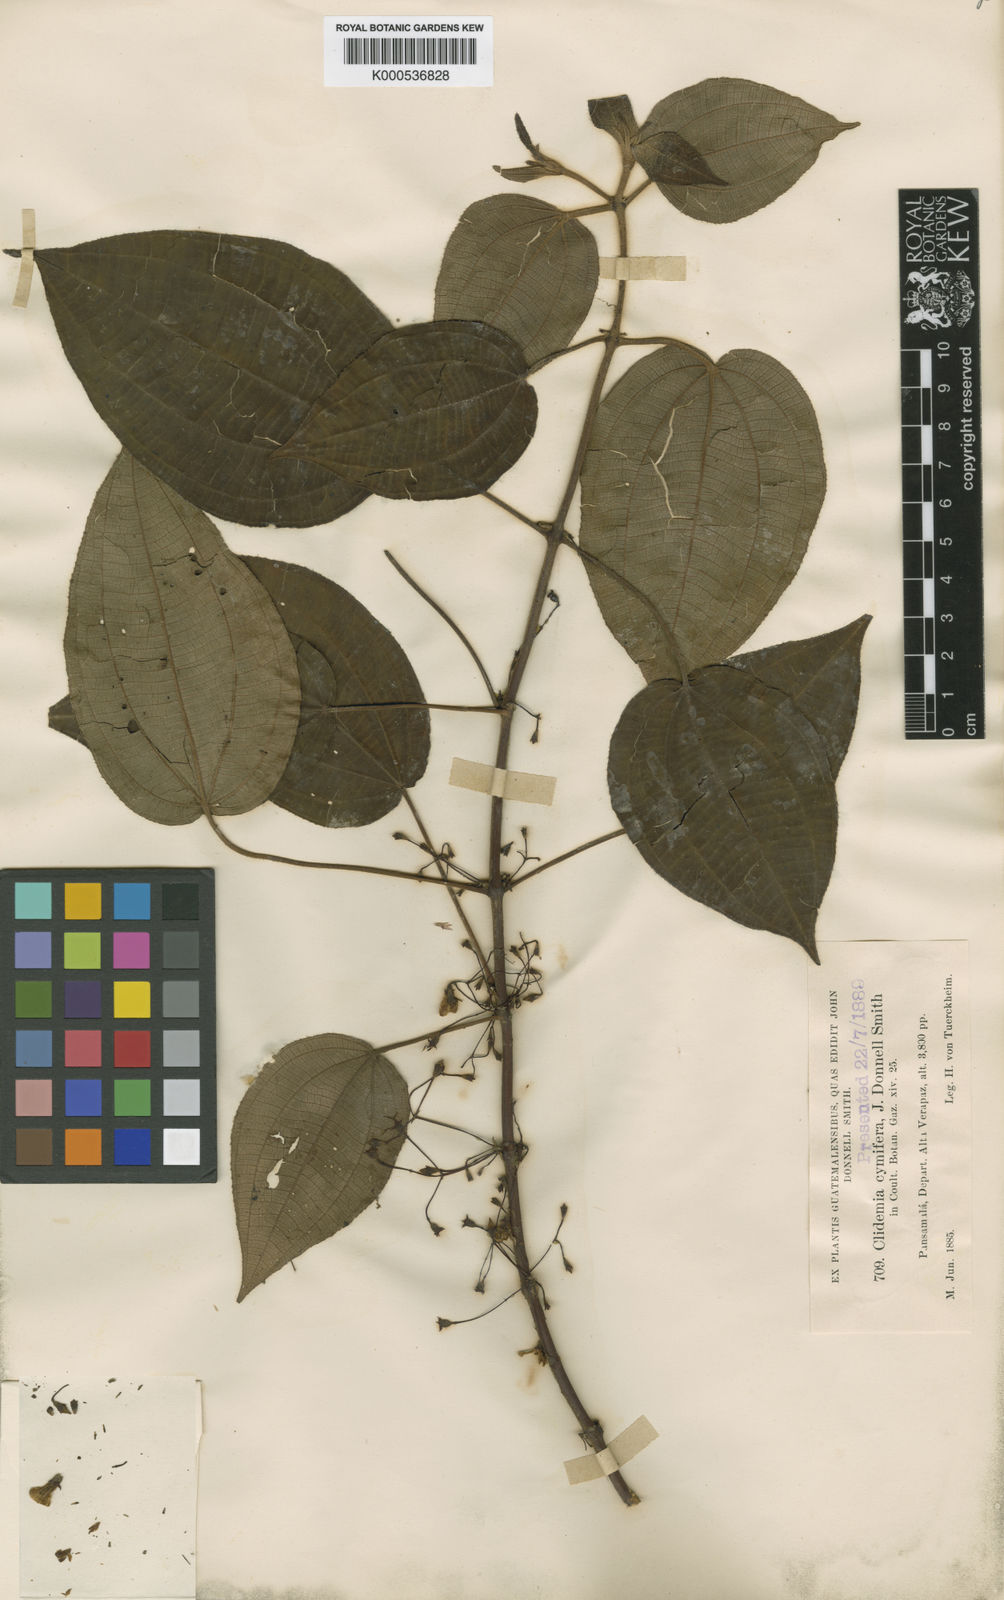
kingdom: Plantae
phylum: Tracheophyta
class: Magnoliopsida
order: Myrtales
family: Melastomataceae
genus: Miconia
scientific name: Miconia cymifera
